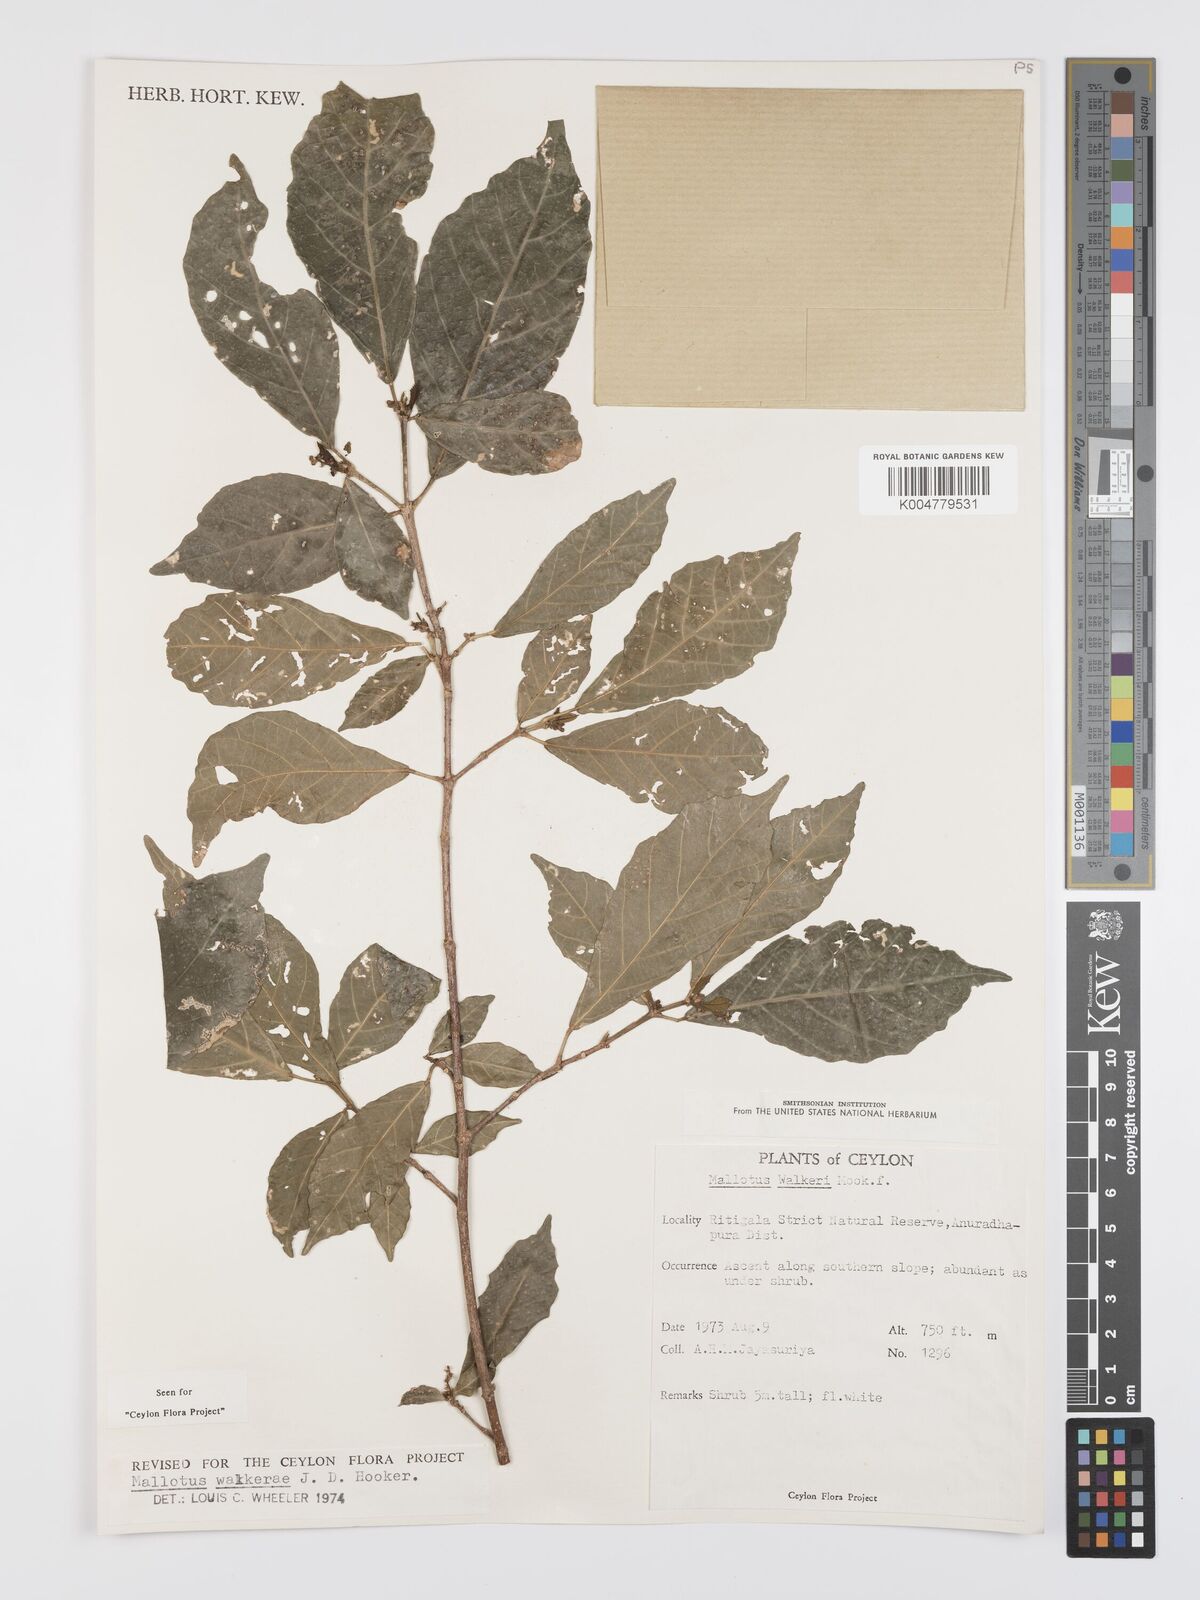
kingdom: Plantae
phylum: Tracheophyta
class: Magnoliopsida
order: Malpighiales
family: Euphorbiaceae
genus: Mallotus
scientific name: Mallotus resinosus
